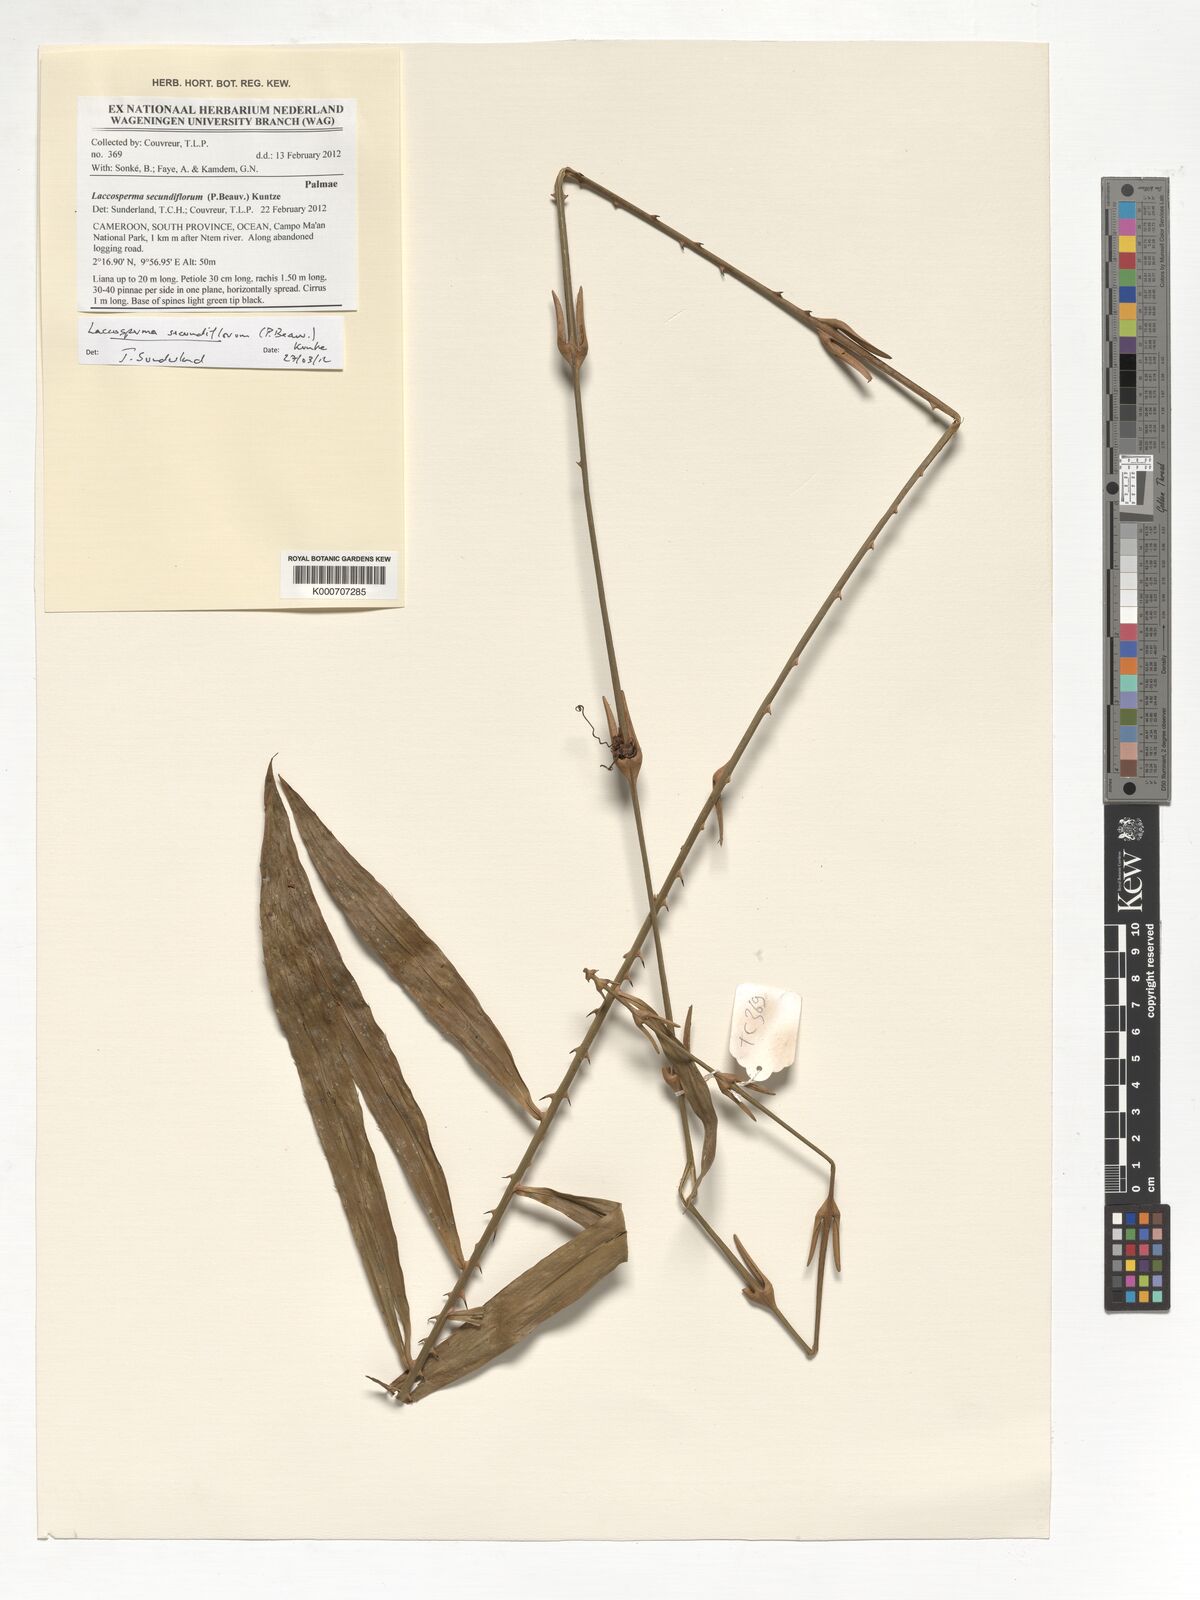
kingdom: Plantae
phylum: Tracheophyta
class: Liliopsida
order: Arecales
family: Arecaceae
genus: Laccosperma
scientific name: Laccosperma secundiflorum
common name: Rattan
